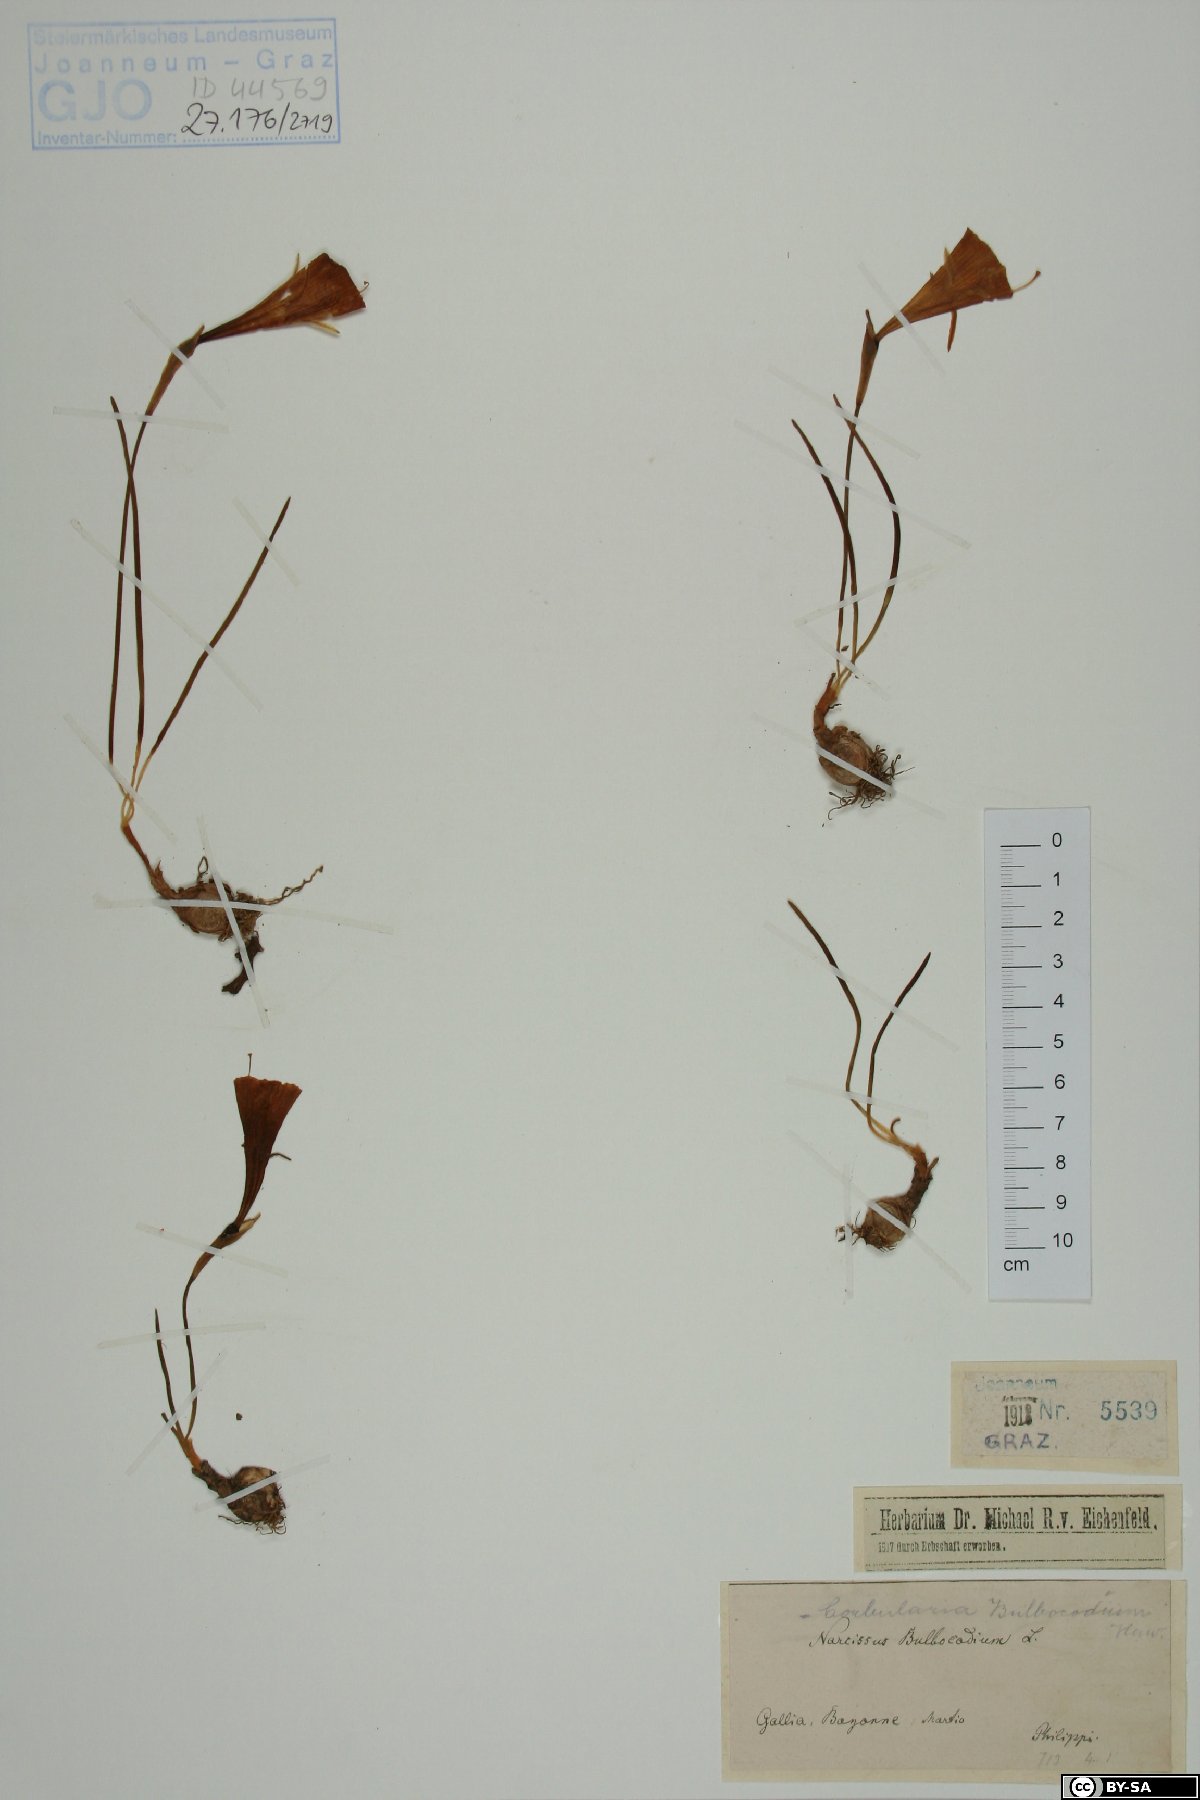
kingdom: Plantae
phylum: Tracheophyta
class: Liliopsida
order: Asparagales
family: Amaryllidaceae
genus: Narcissus
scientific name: Narcissus bulbocodium
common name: Hoop-petticoat daffodil
